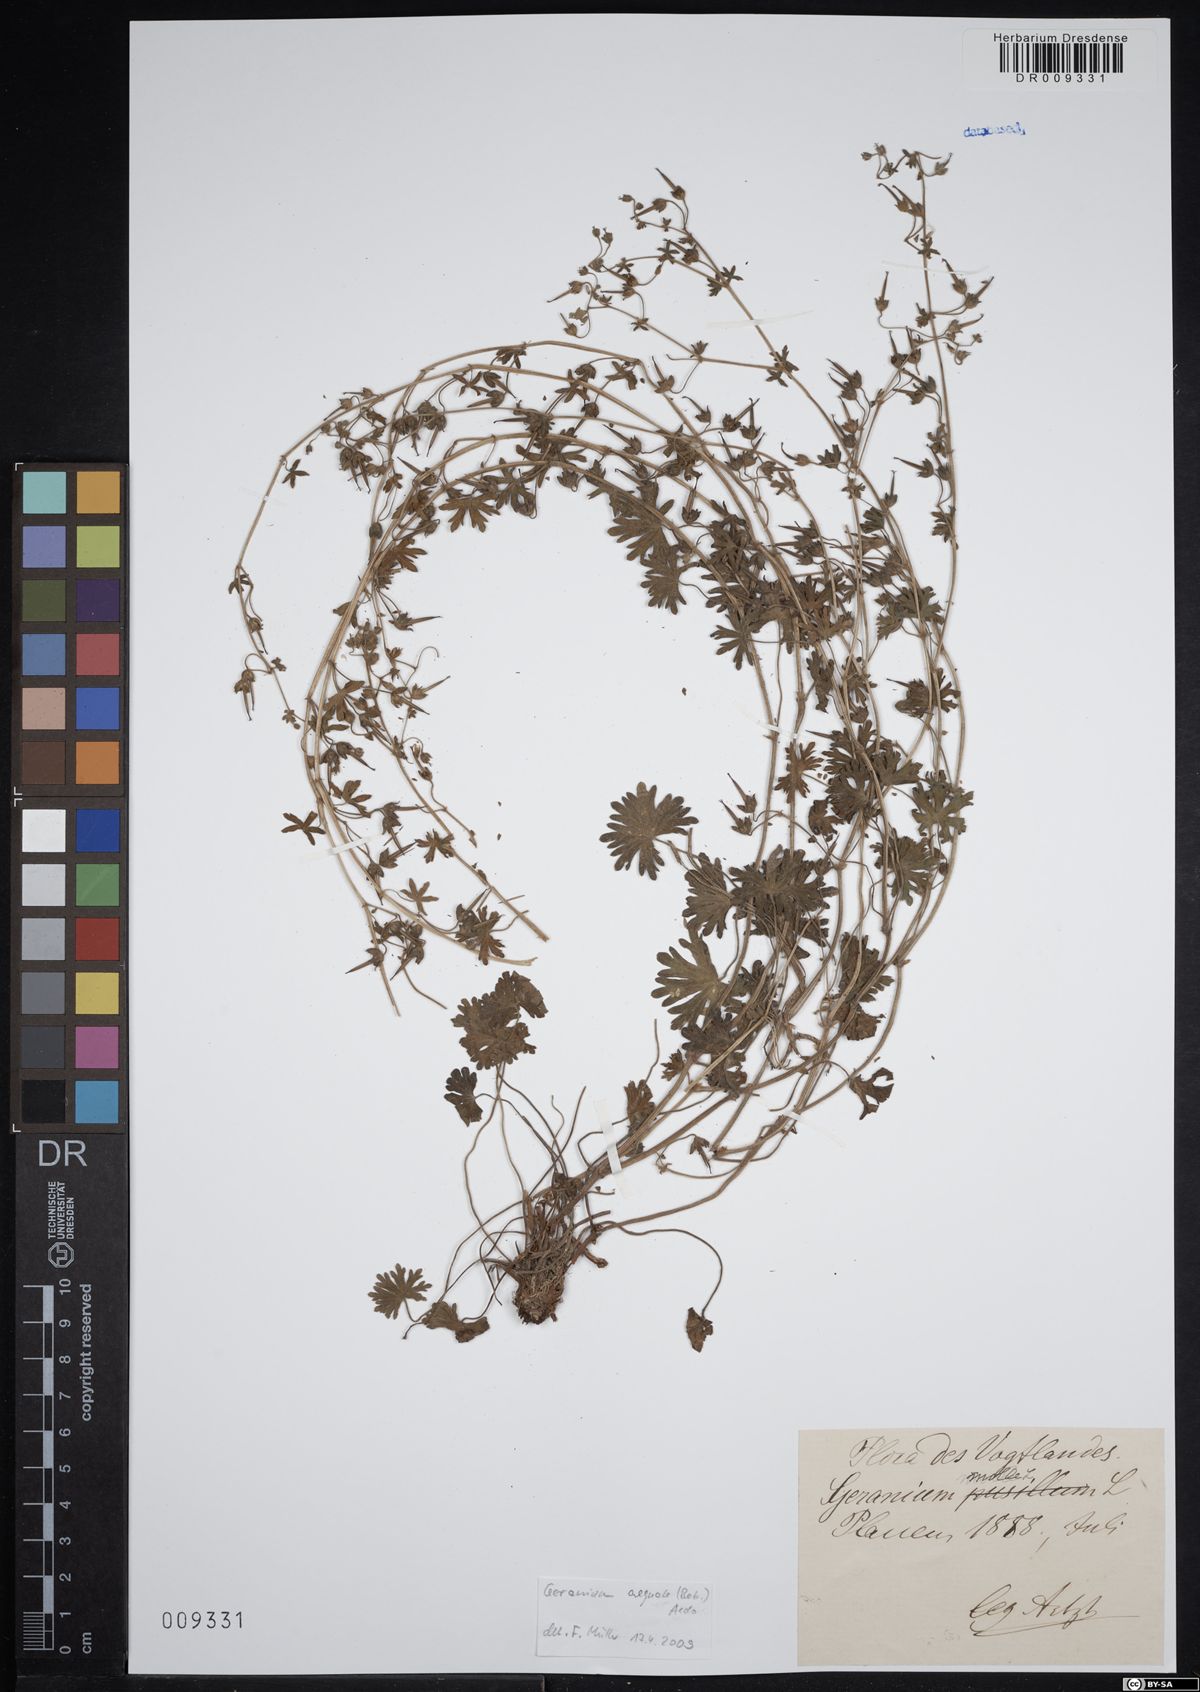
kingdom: Plantae
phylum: Tracheophyta
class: Magnoliopsida
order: Geraniales
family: Geraniaceae
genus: Geranium
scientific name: Geranium molle
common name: Dove's-foot crane's-bill
